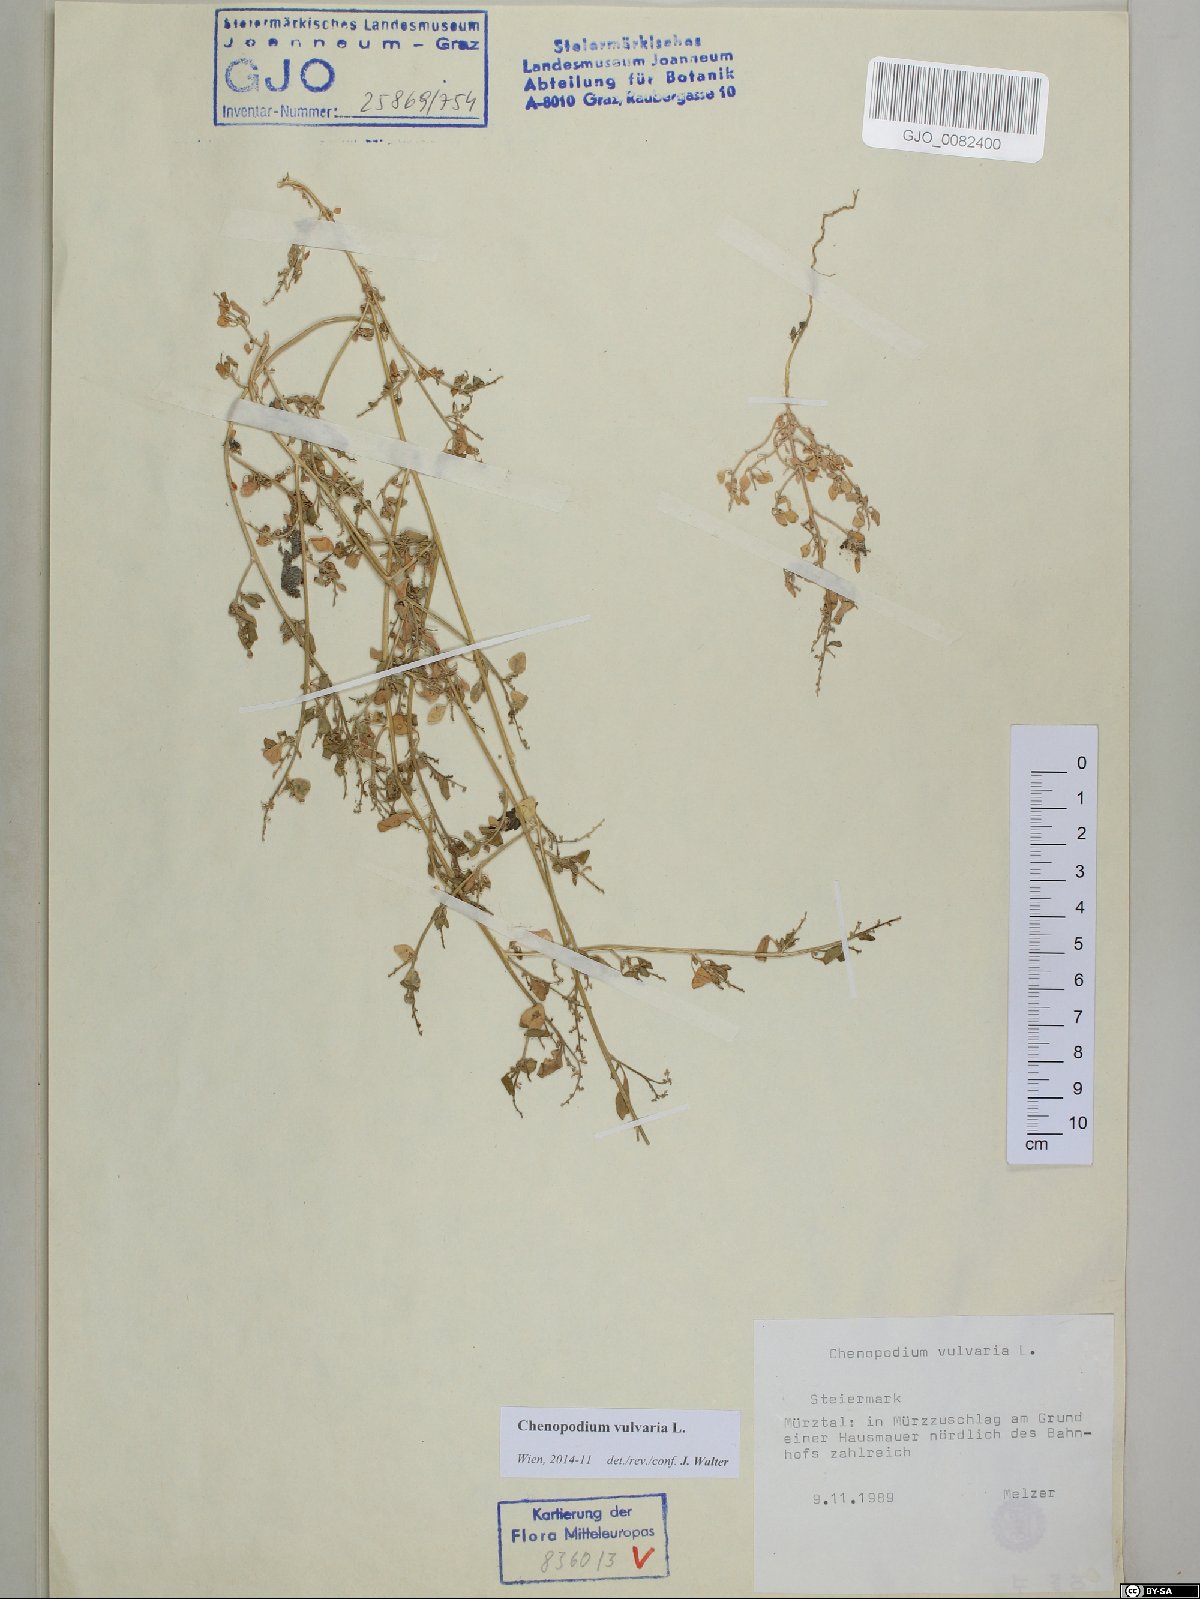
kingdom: Plantae
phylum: Tracheophyta
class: Magnoliopsida
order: Caryophyllales
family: Amaranthaceae
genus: Chenopodium
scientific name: Chenopodium vulvaria
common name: Stinking goosefoot
